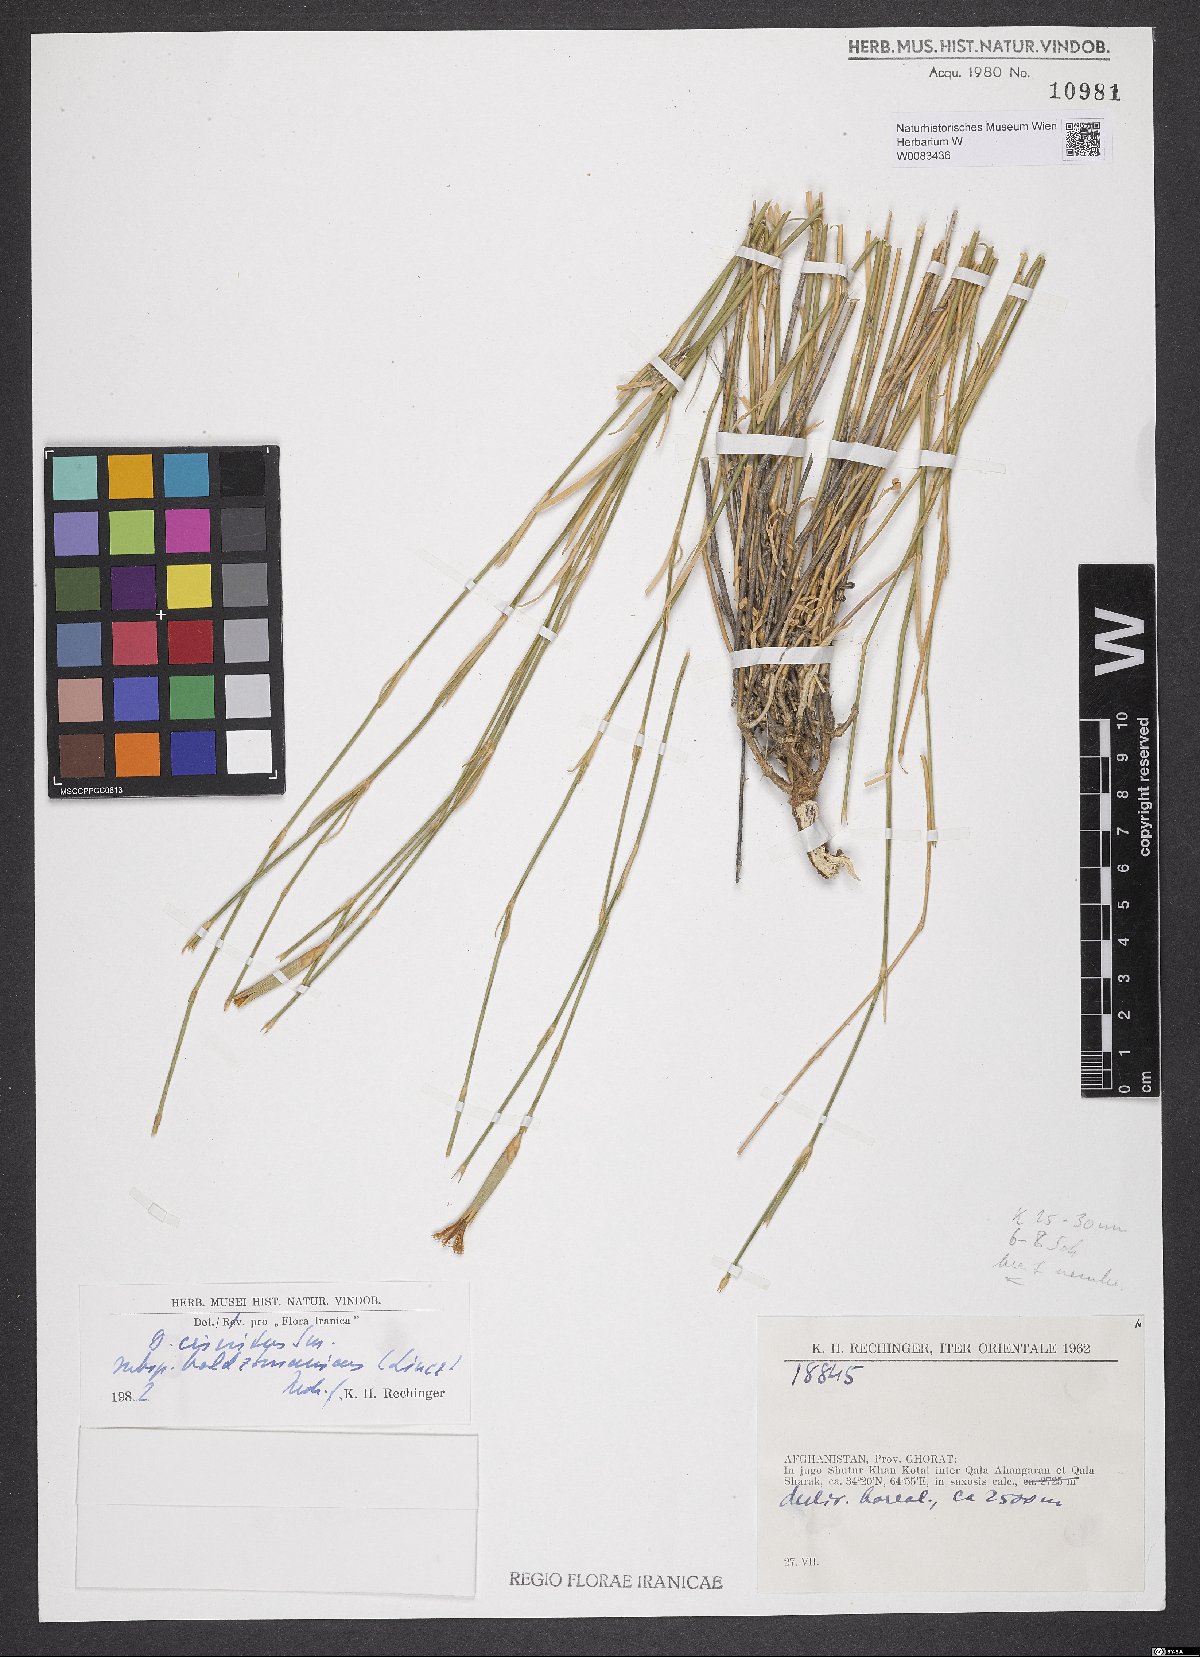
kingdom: Plantae
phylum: Tracheophyta
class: Magnoliopsida
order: Caryophyllales
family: Caryophyllaceae
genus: Dianthus
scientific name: Dianthus crinitus
